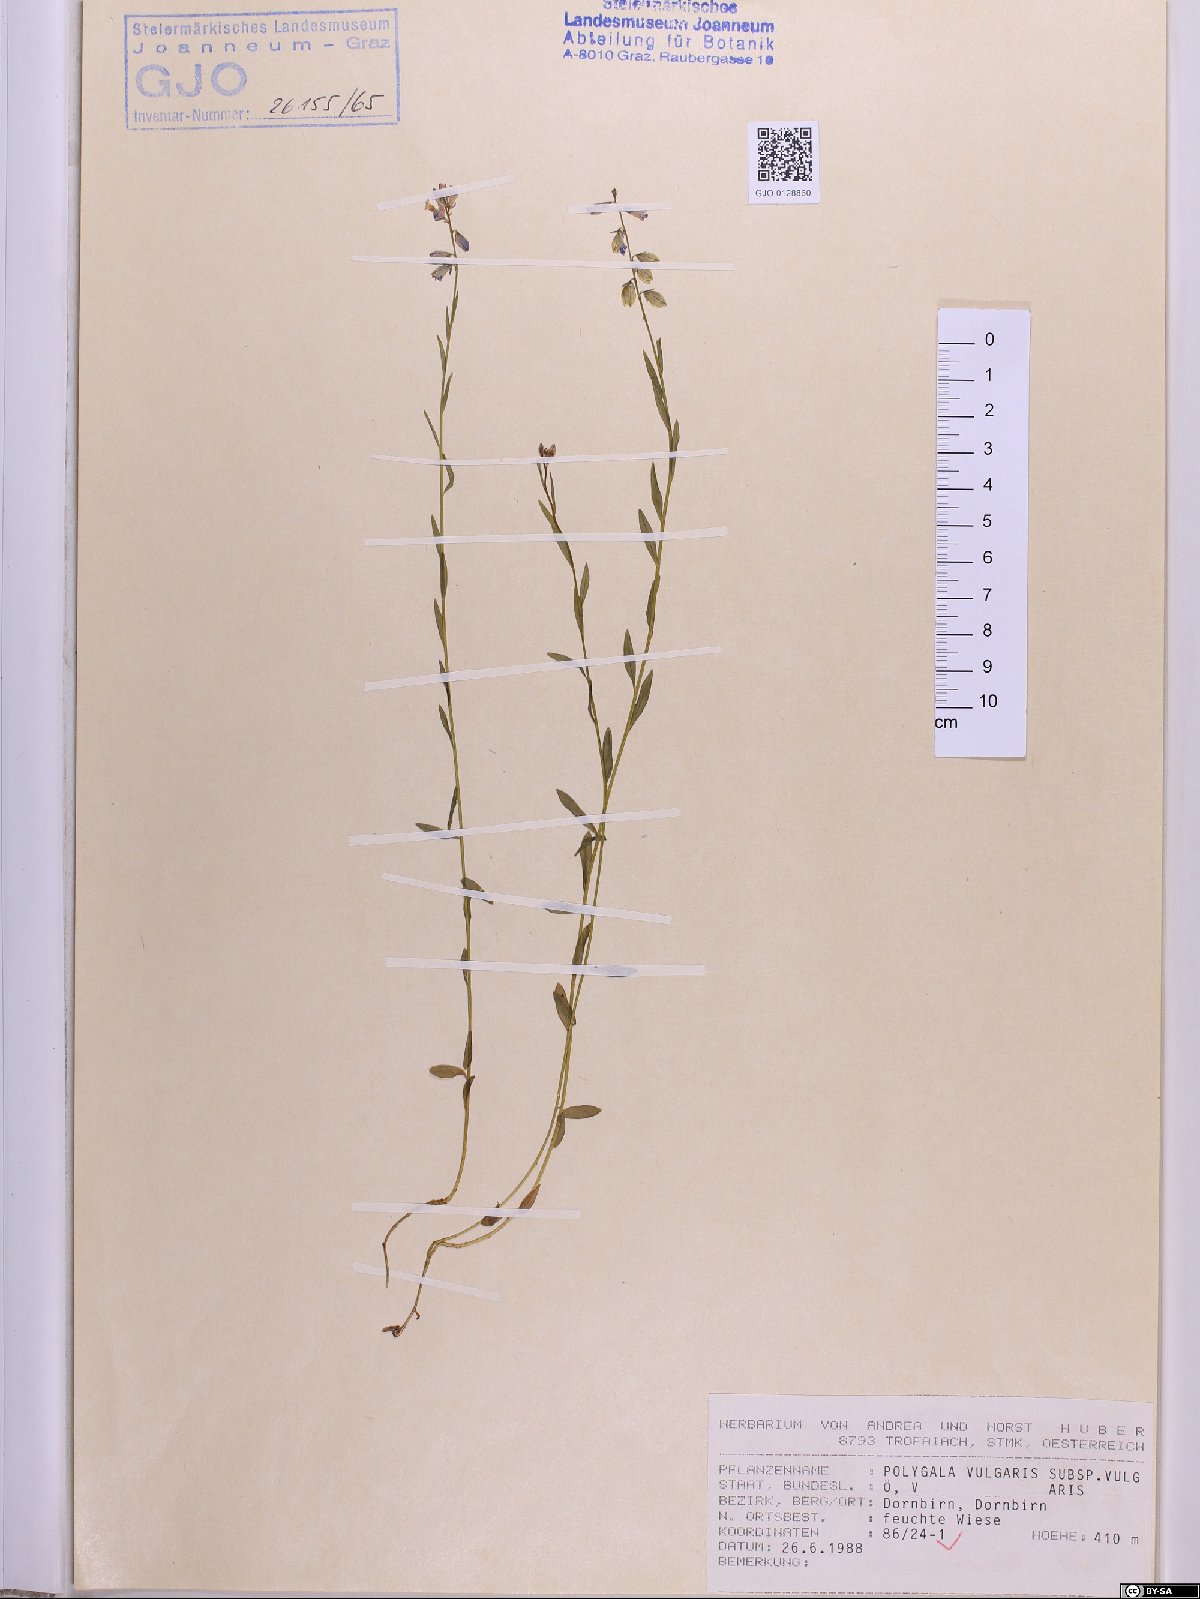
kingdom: Plantae
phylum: Tracheophyta
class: Magnoliopsida
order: Fabales
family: Polygalaceae
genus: Polygala
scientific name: Polygala vulgaris
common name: Common milkwort
